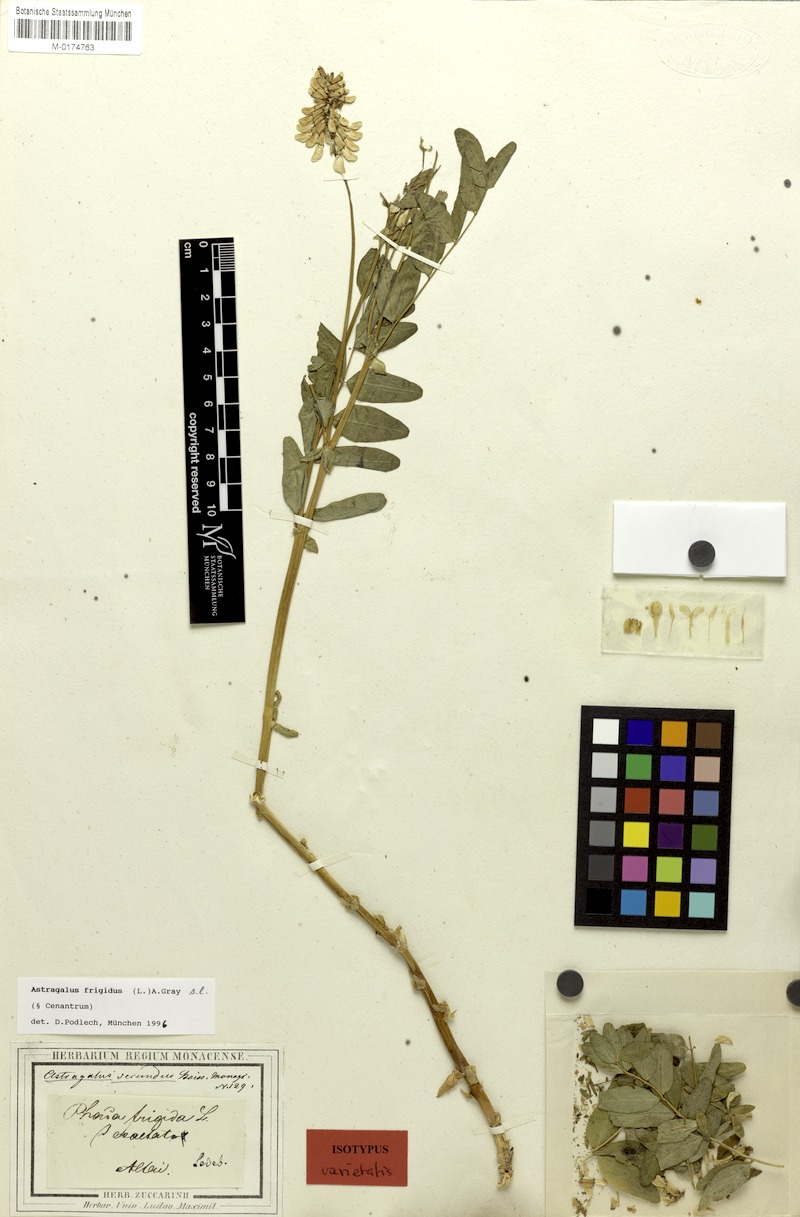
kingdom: Plantae
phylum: Tracheophyta
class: Magnoliopsida
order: Fabales
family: Fabaceae
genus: Astragalus
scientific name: Astragalus frigidus
